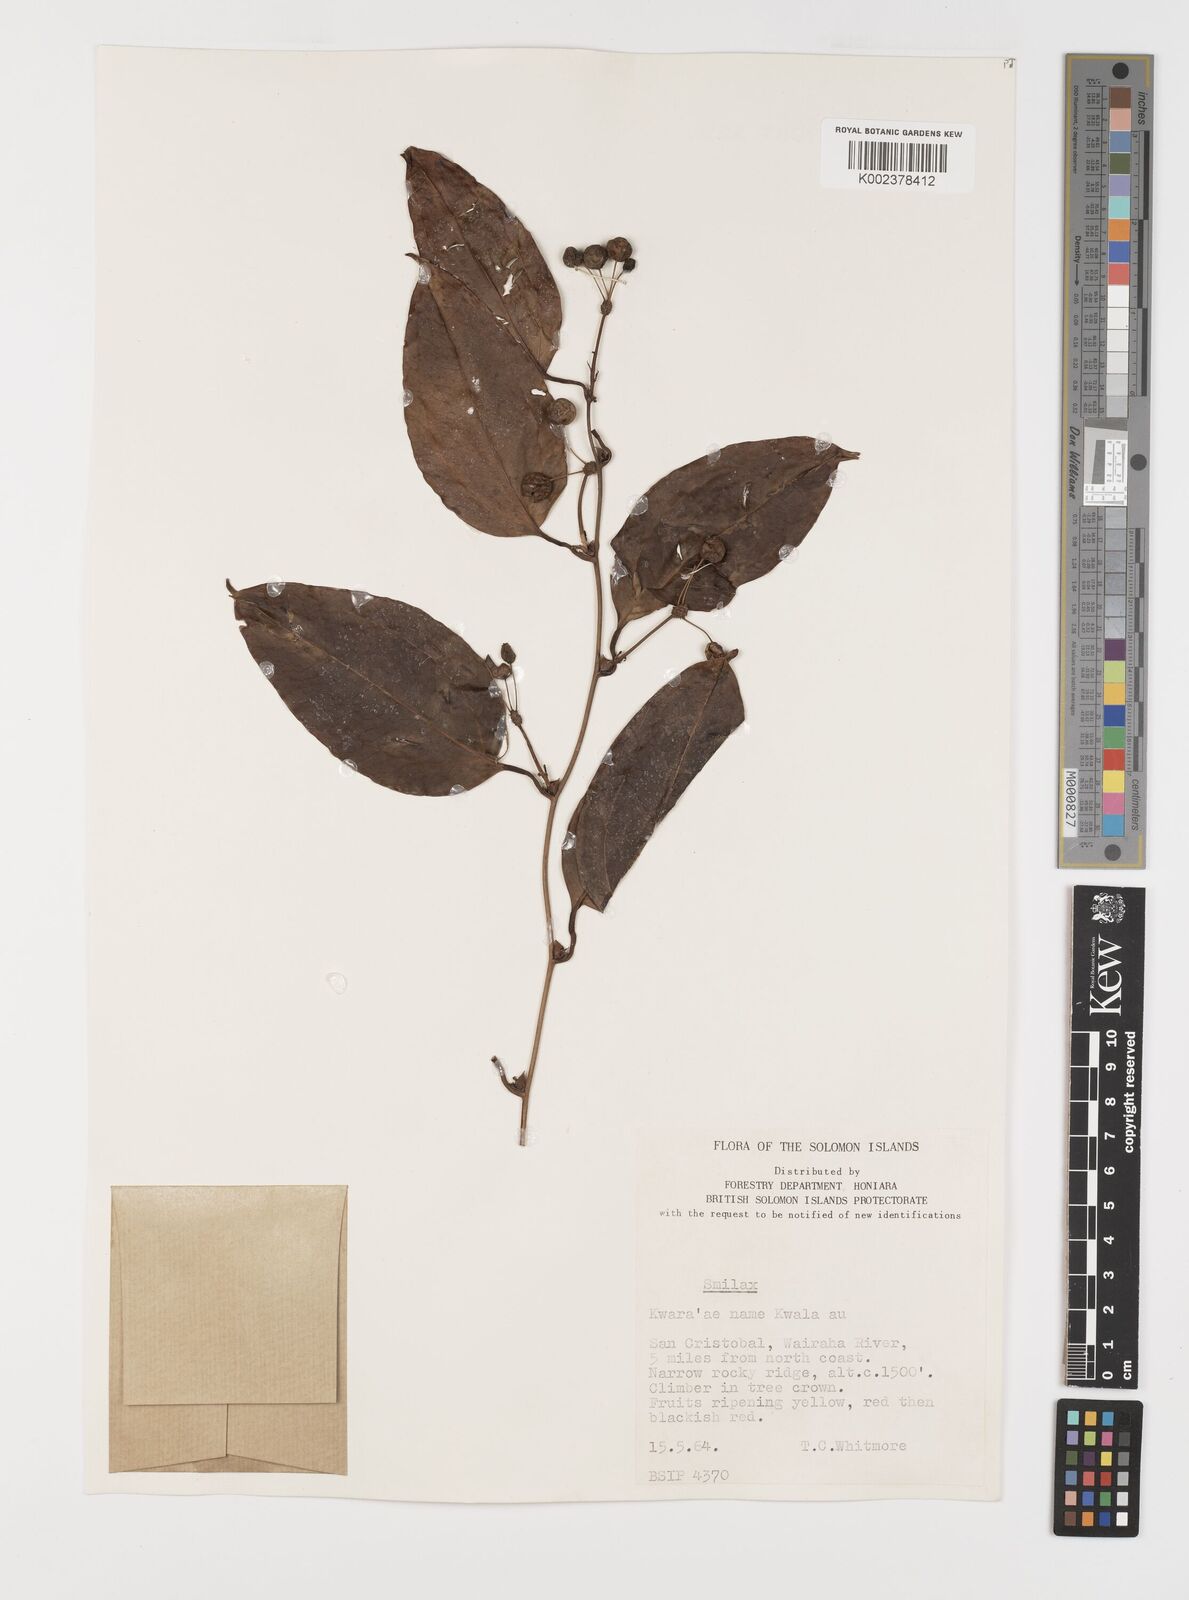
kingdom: Plantae
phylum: Tracheophyta
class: Liliopsida
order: Liliales
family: Smilacaceae
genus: Smilax
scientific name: Smilax
